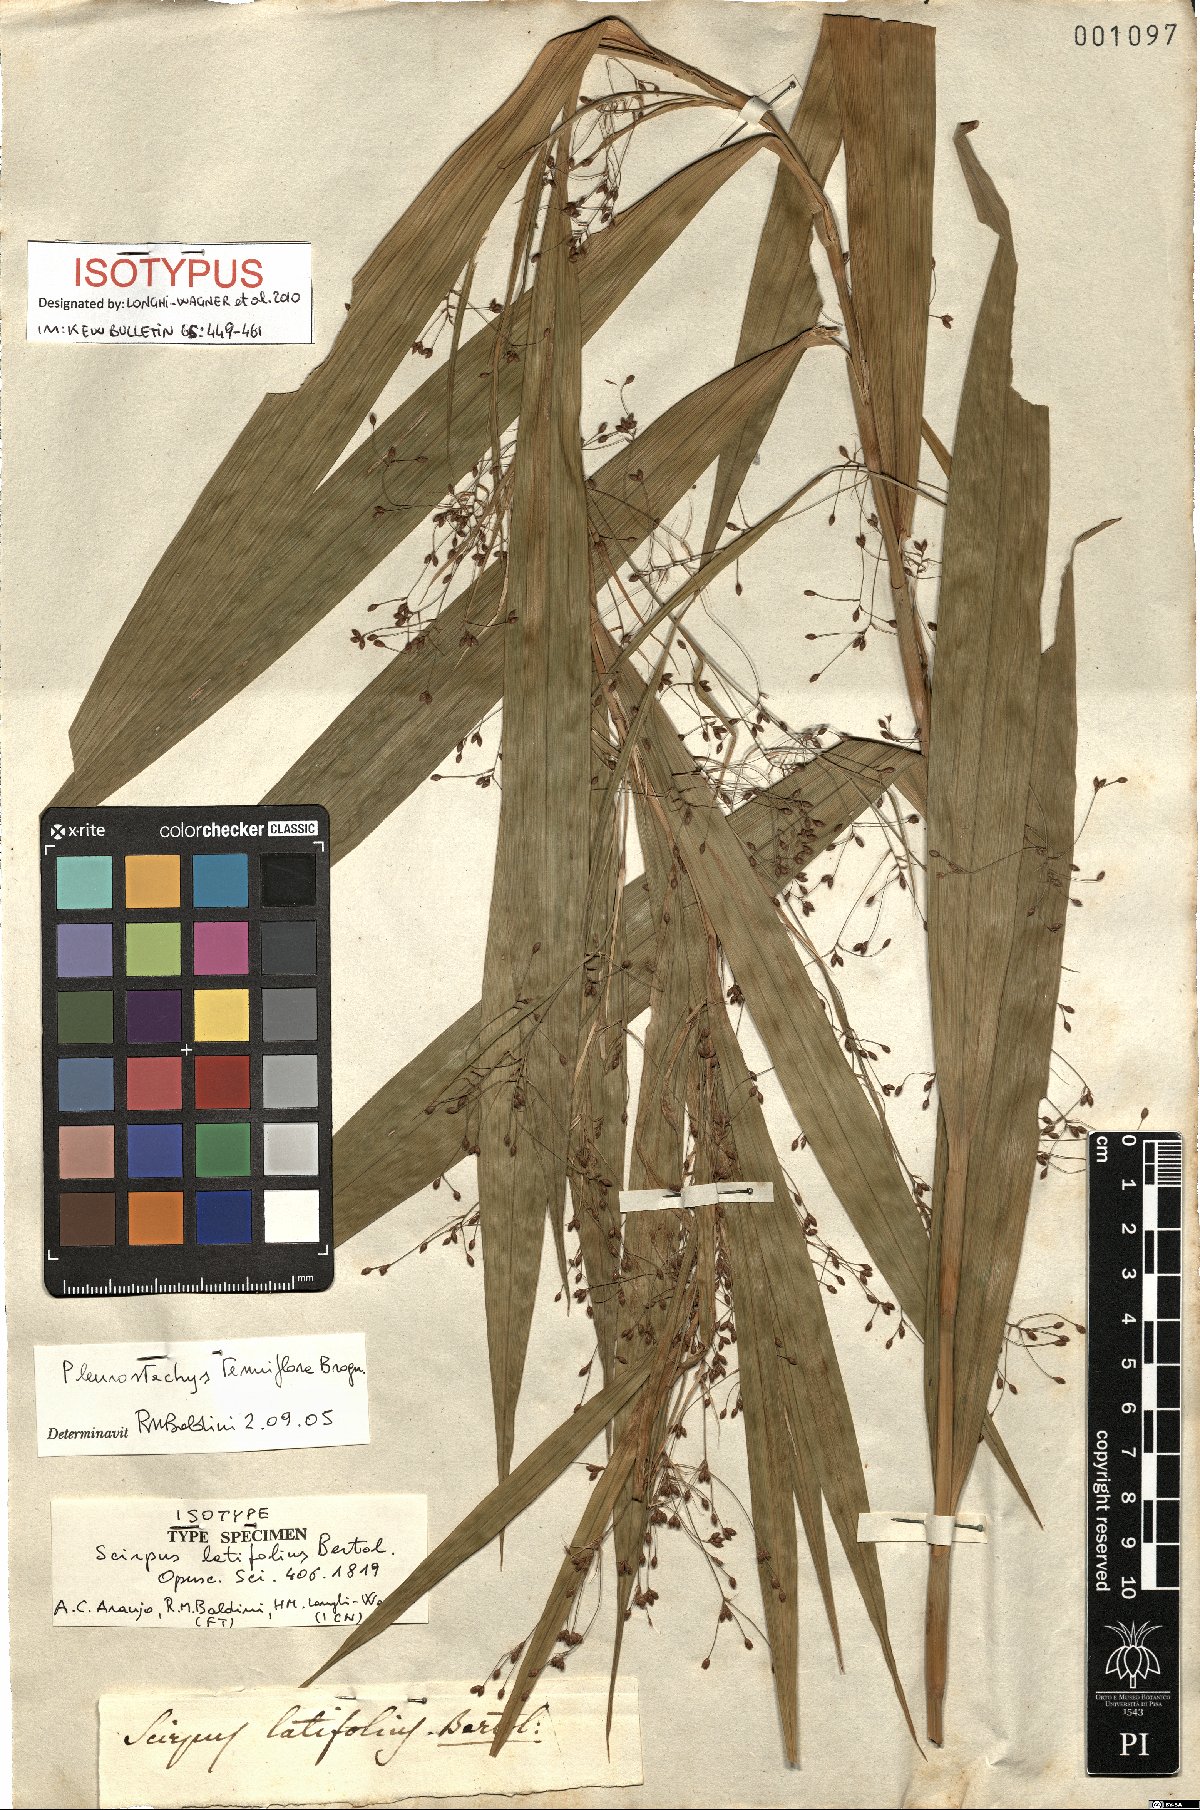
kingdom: Plantae
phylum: Tracheophyta
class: Liliopsida
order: Poales
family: Cyperaceae
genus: Rhynchospora
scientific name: Rhynchospora tenuiflora
